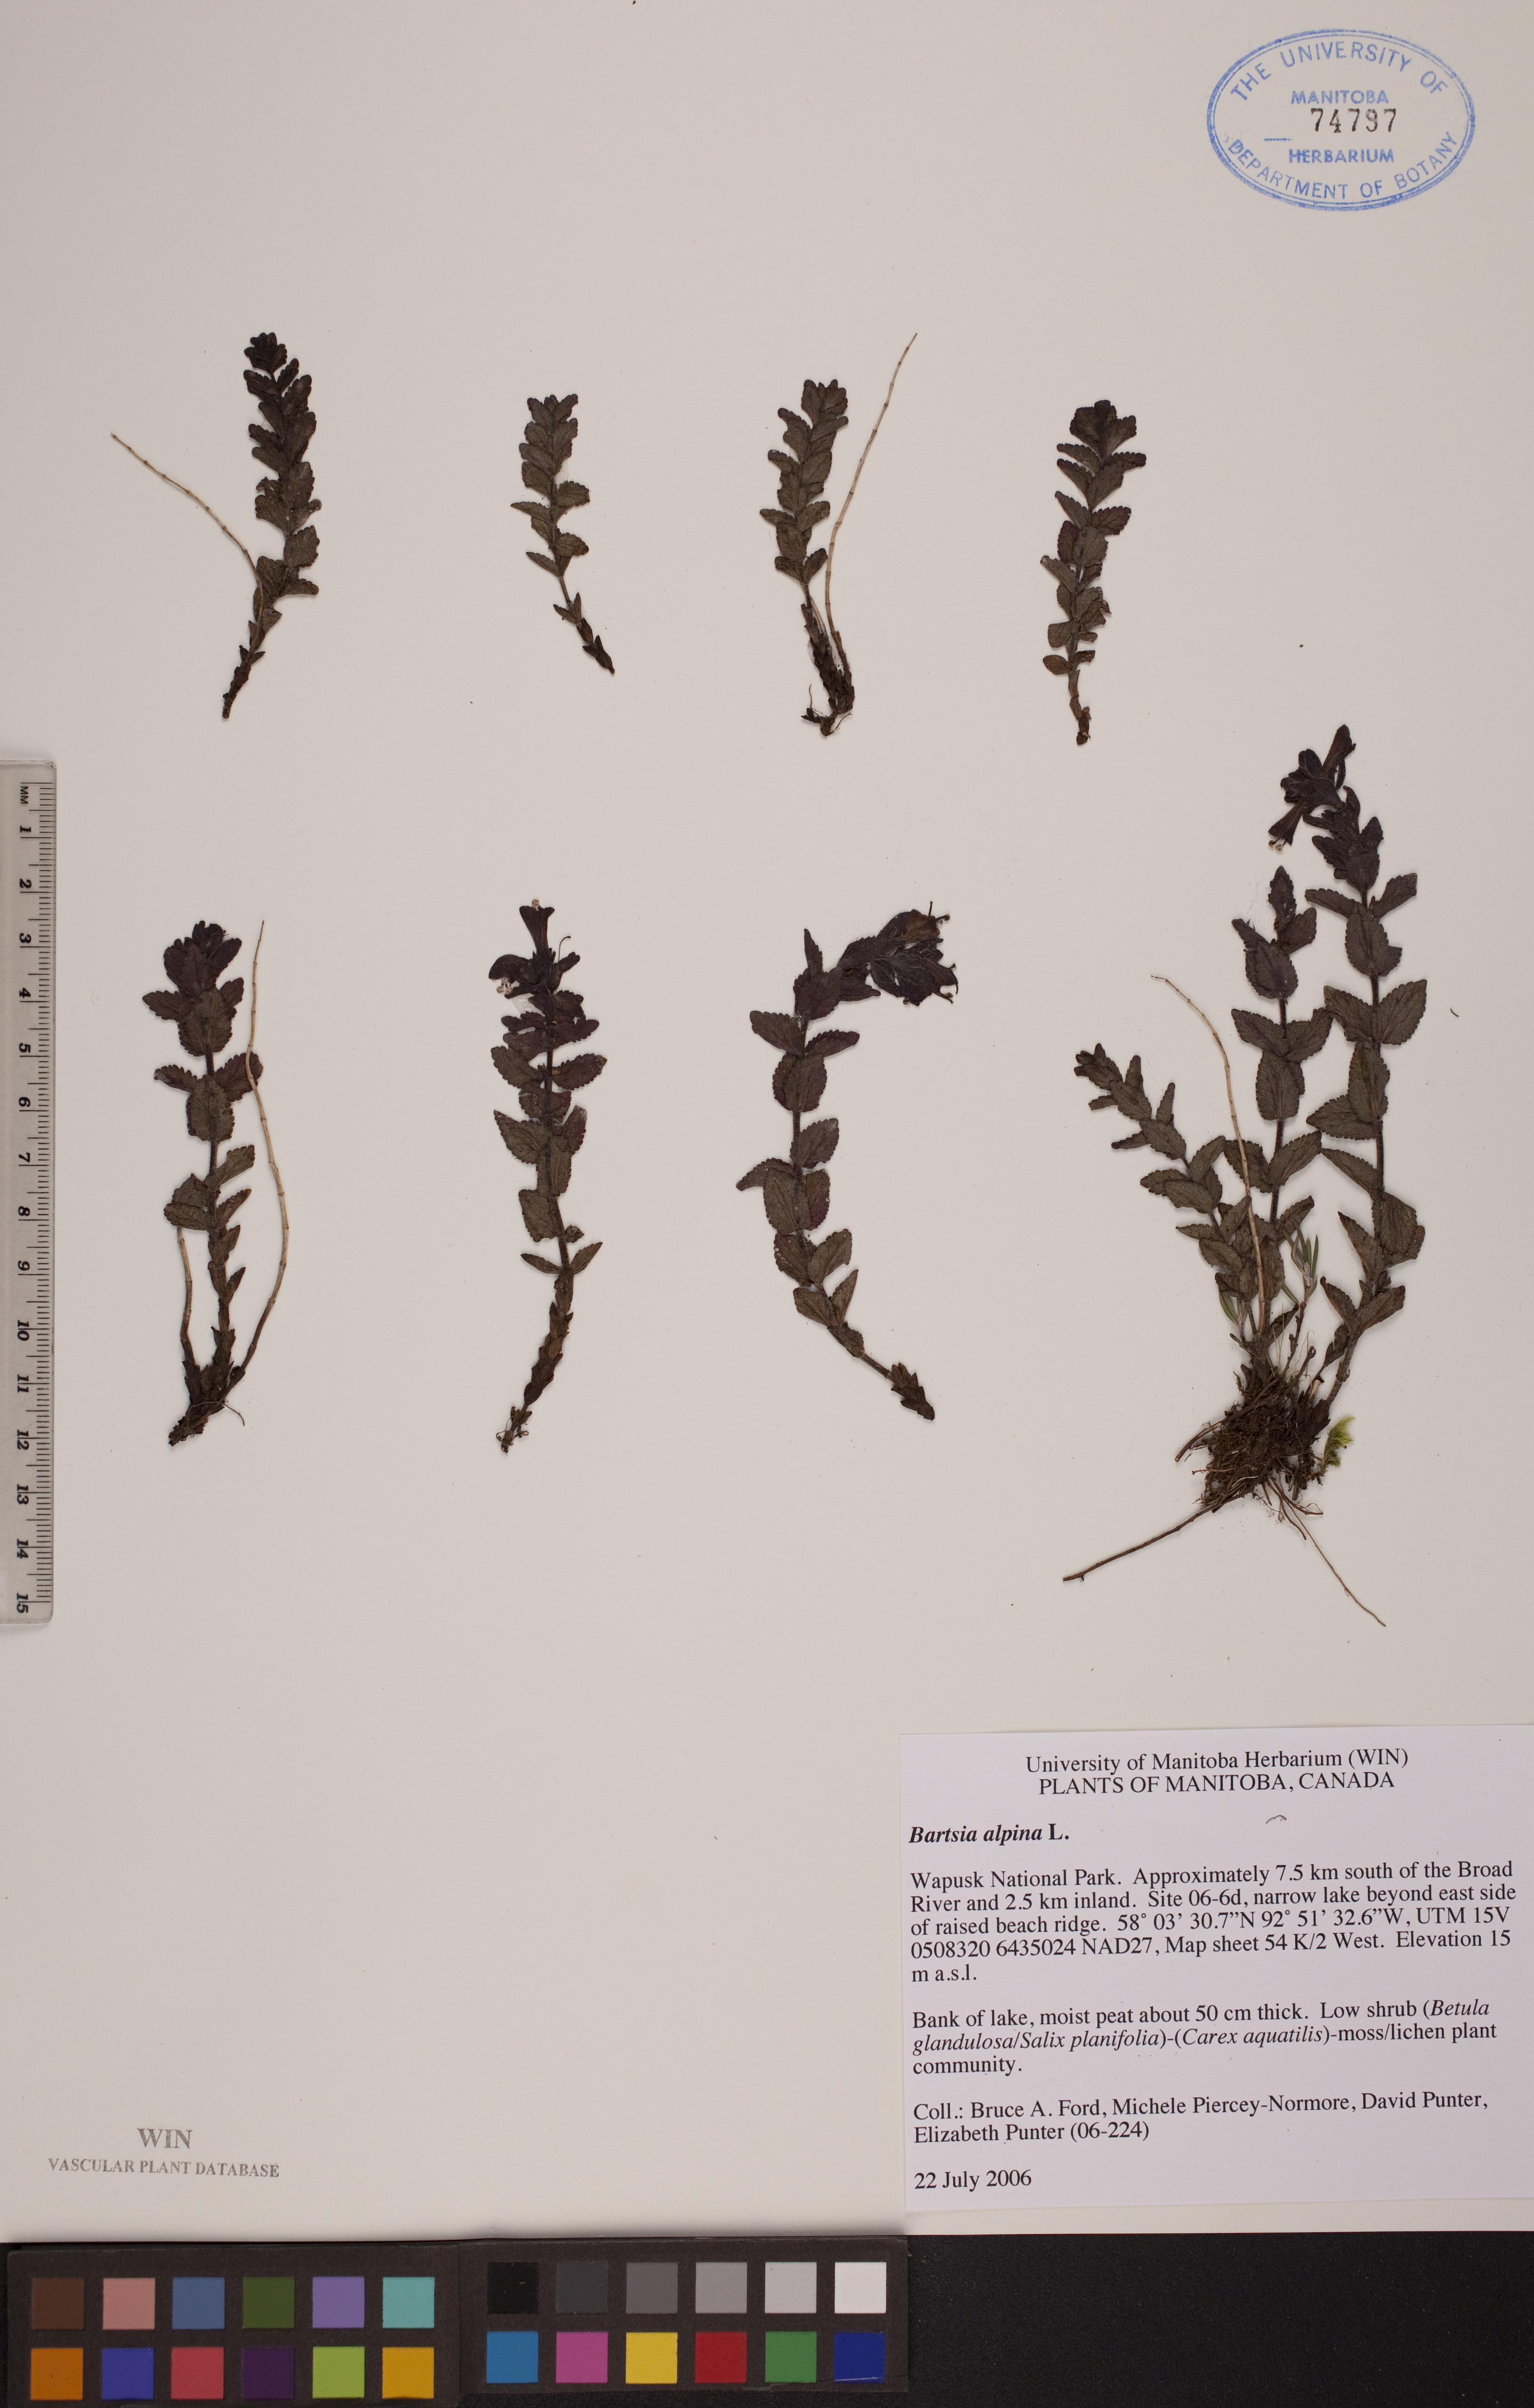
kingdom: Plantae
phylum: Tracheophyta
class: Magnoliopsida
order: Lamiales
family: Orobanchaceae
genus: Bartsia
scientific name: Bartsia alpina
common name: Alpine bartsia
